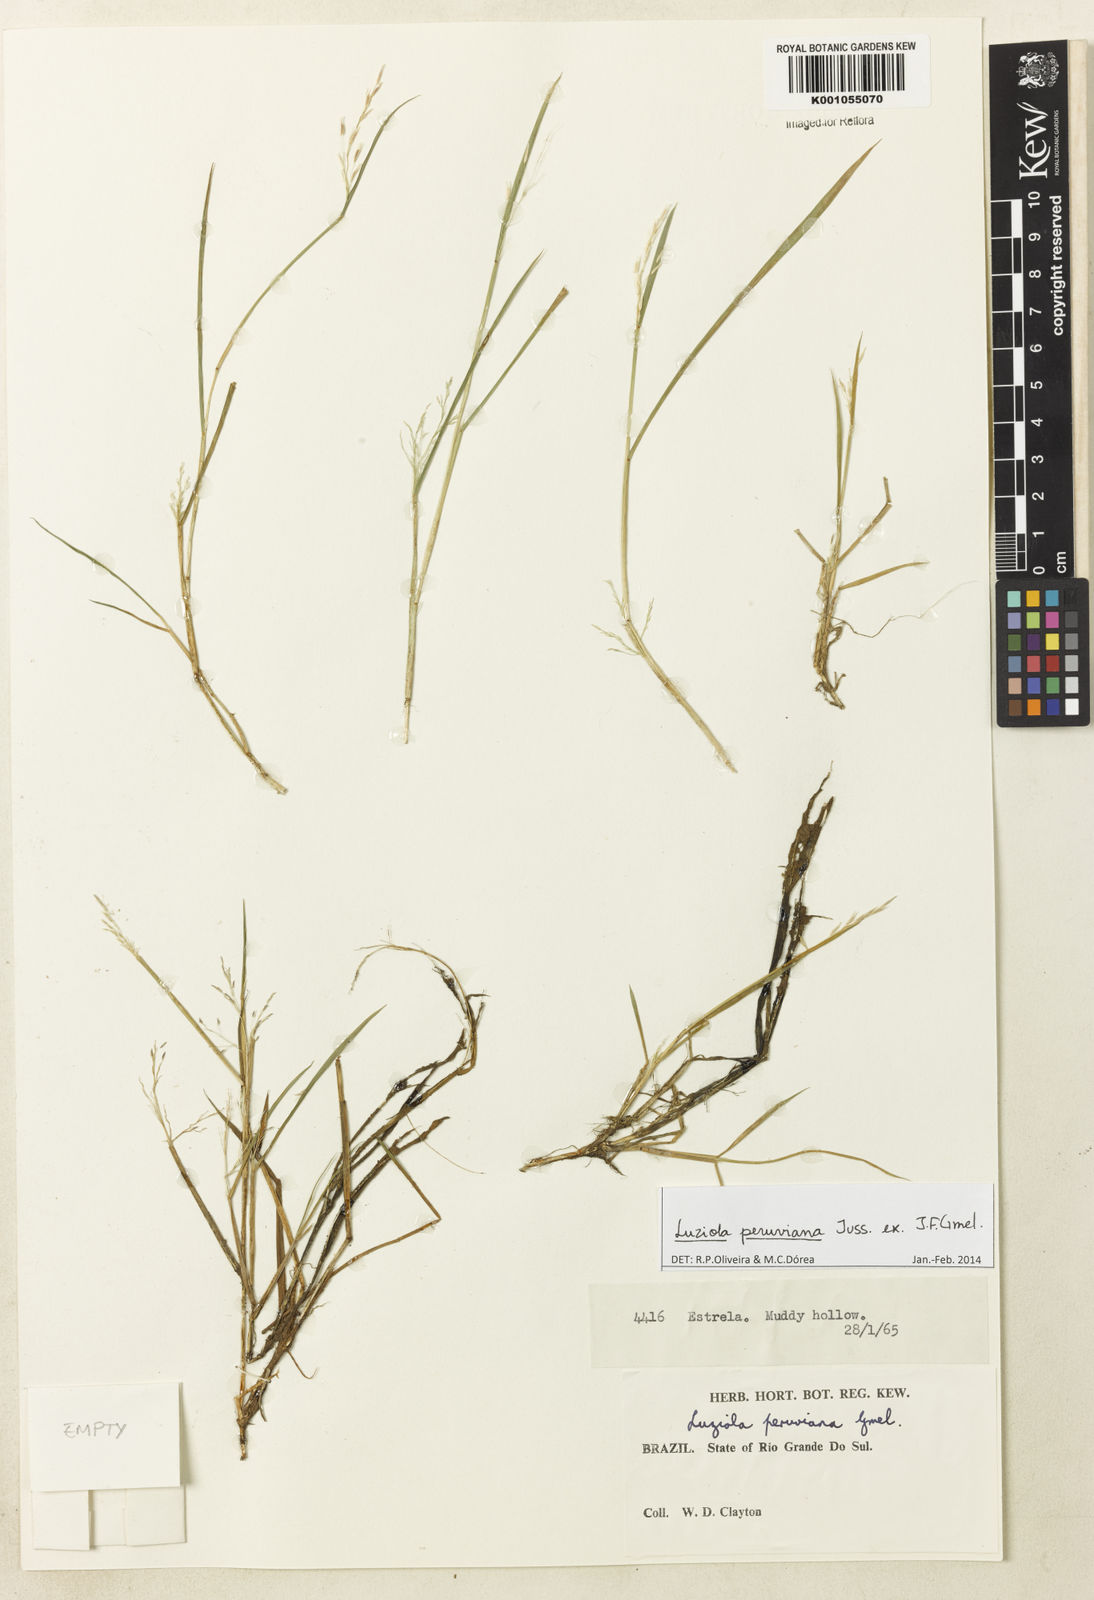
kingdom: Plantae
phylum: Tracheophyta
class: Liliopsida
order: Poales
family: Poaceae
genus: Luziola
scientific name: Luziola peruviana
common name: Peruvian watergrass
